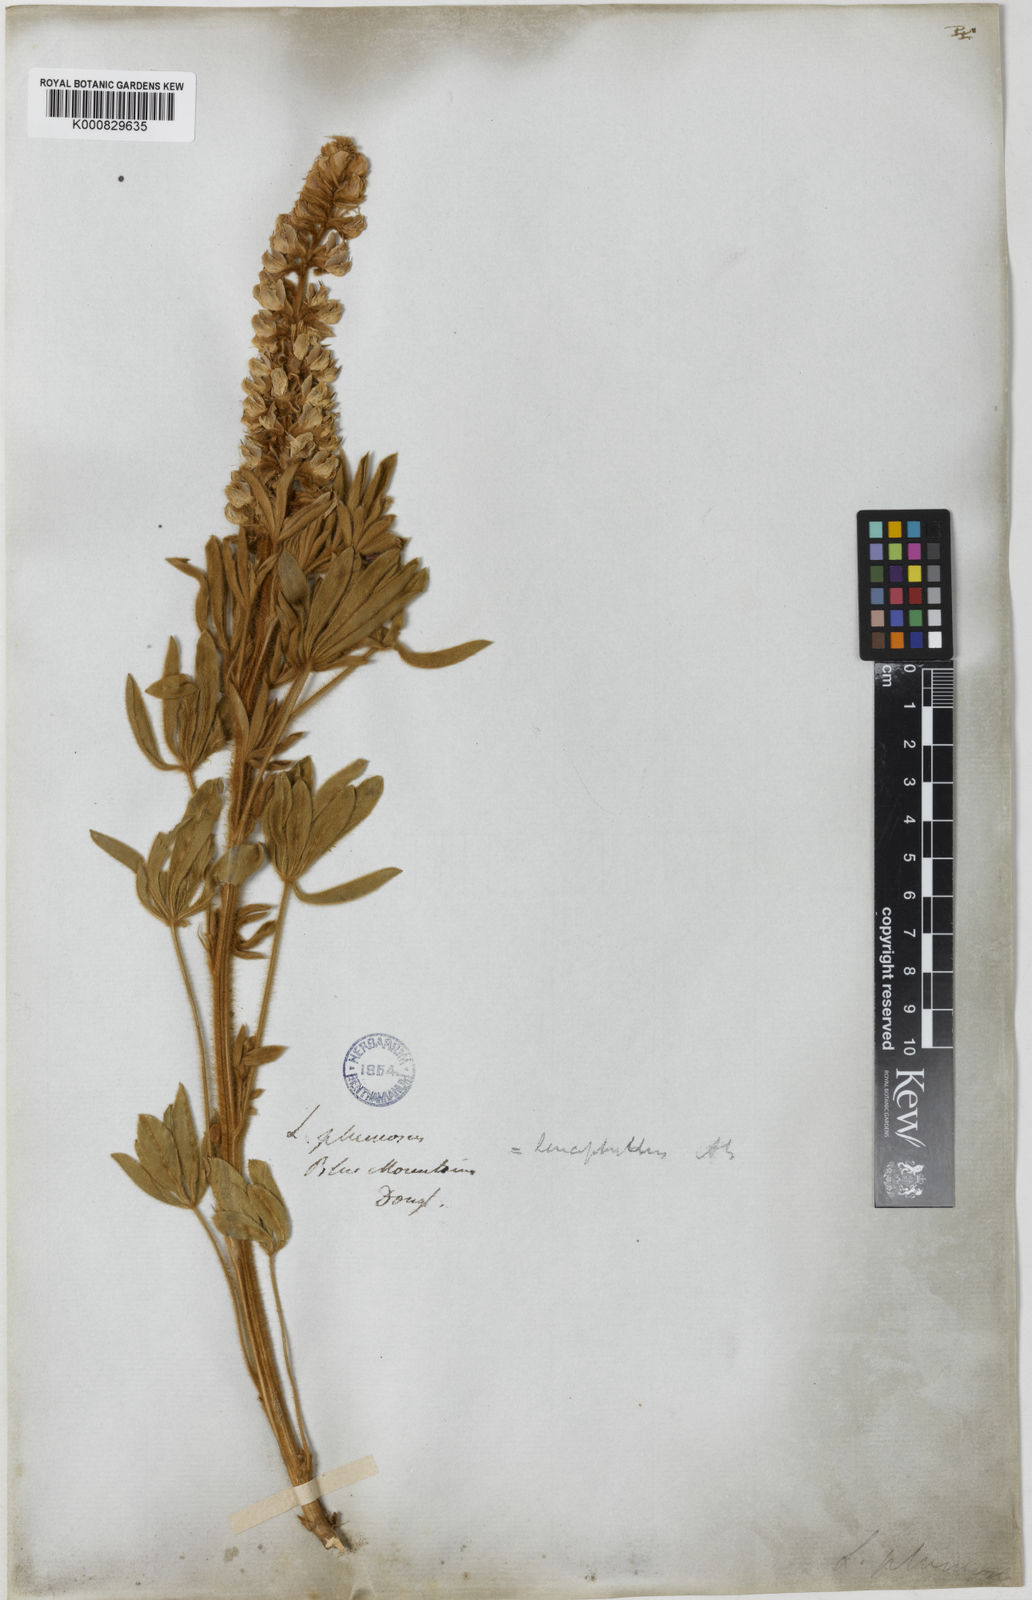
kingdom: Plantae
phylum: Tracheophyta
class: Magnoliopsida
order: Fabales
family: Fabaceae
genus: Lupinus
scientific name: Lupinus leucophyllus
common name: Woolly-leaf lupine
